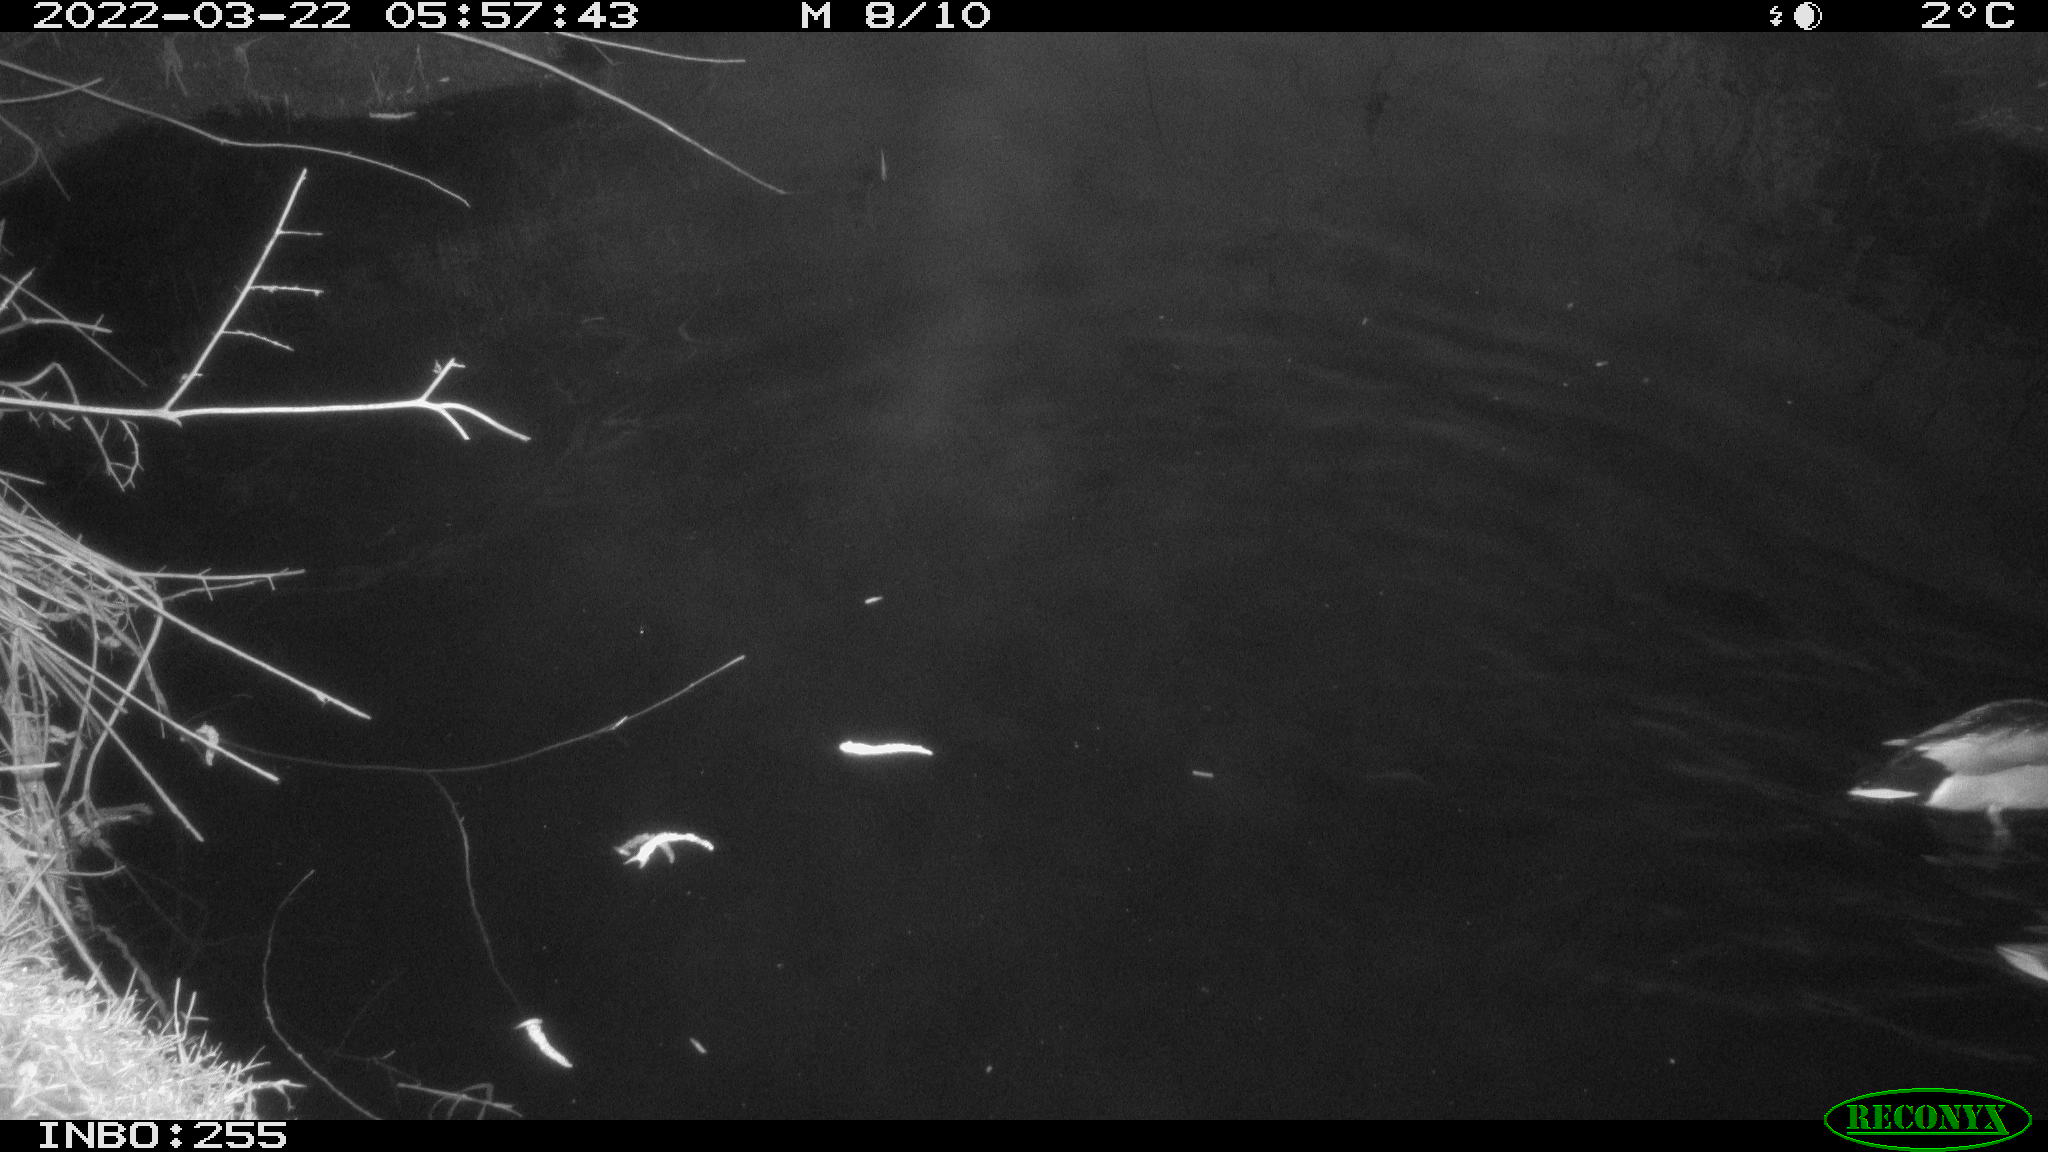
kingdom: Animalia
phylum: Chordata
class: Aves
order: Gruiformes
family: Rallidae
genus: Gallinula
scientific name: Gallinula chloropus
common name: Common moorhen
